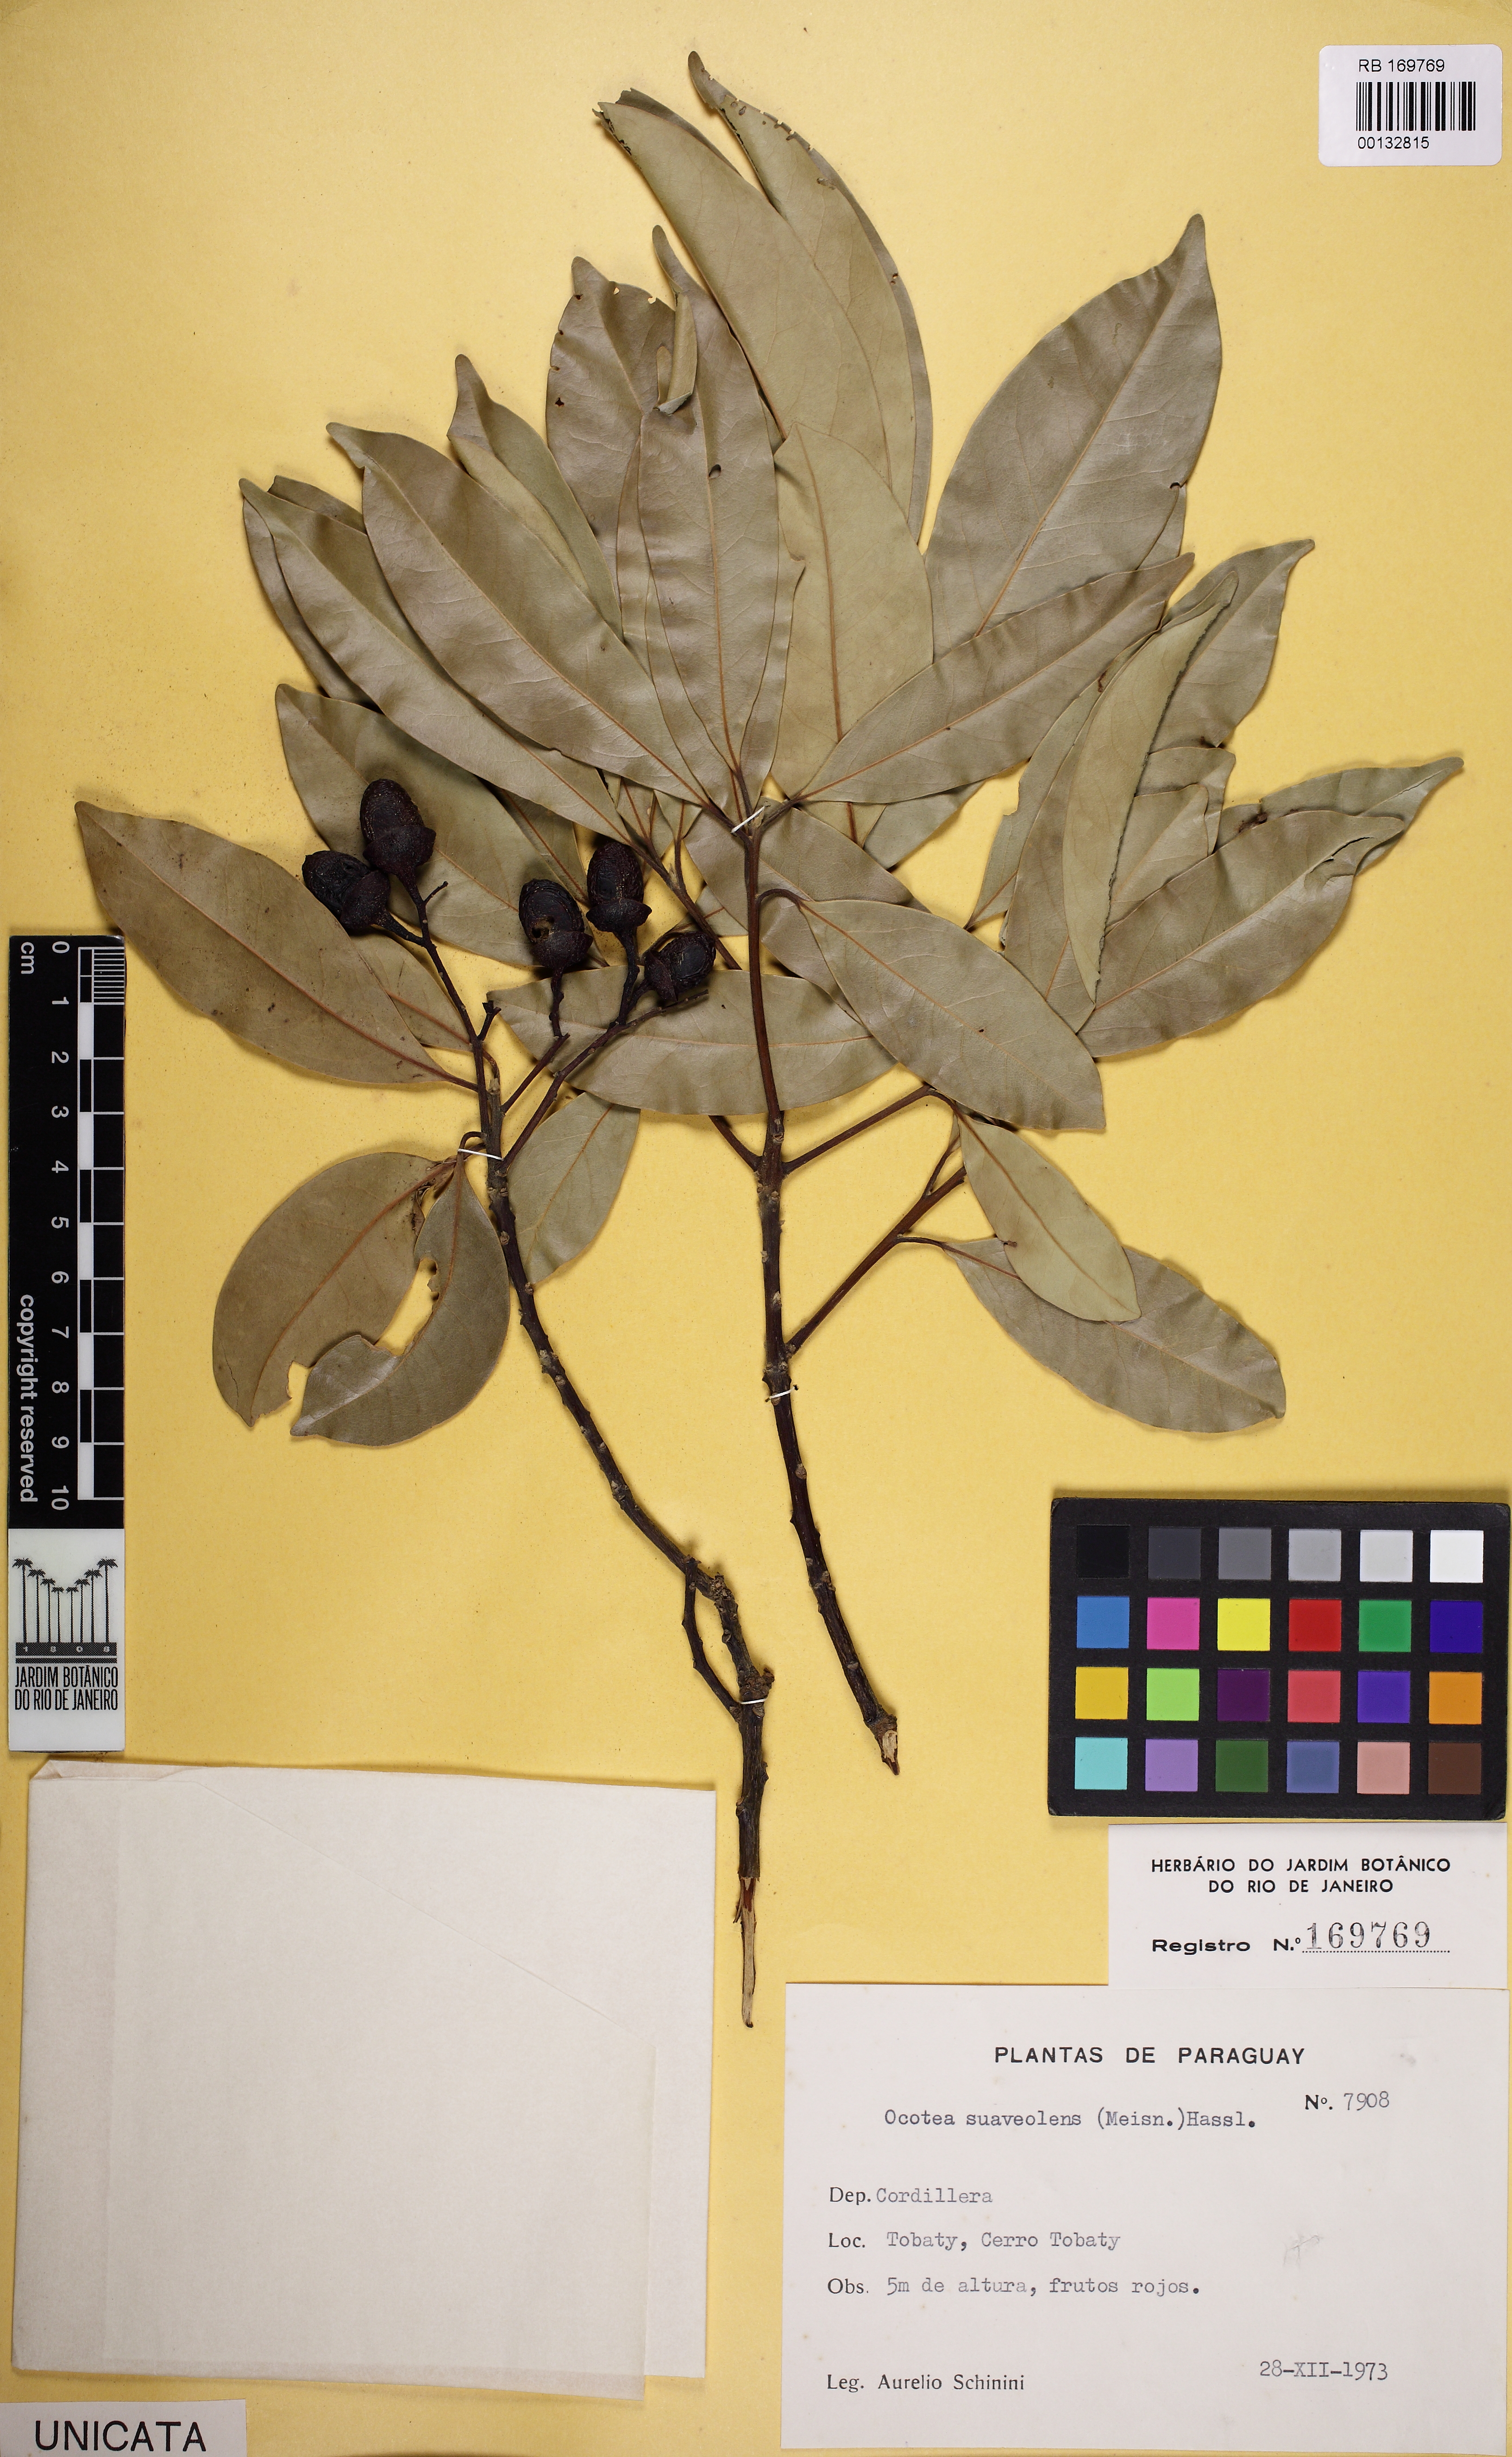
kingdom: Plantae
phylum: Tracheophyta
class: Magnoliopsida
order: Laurales
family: Lauraceae
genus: Ocotea
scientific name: Ocotea diospyrifolia
